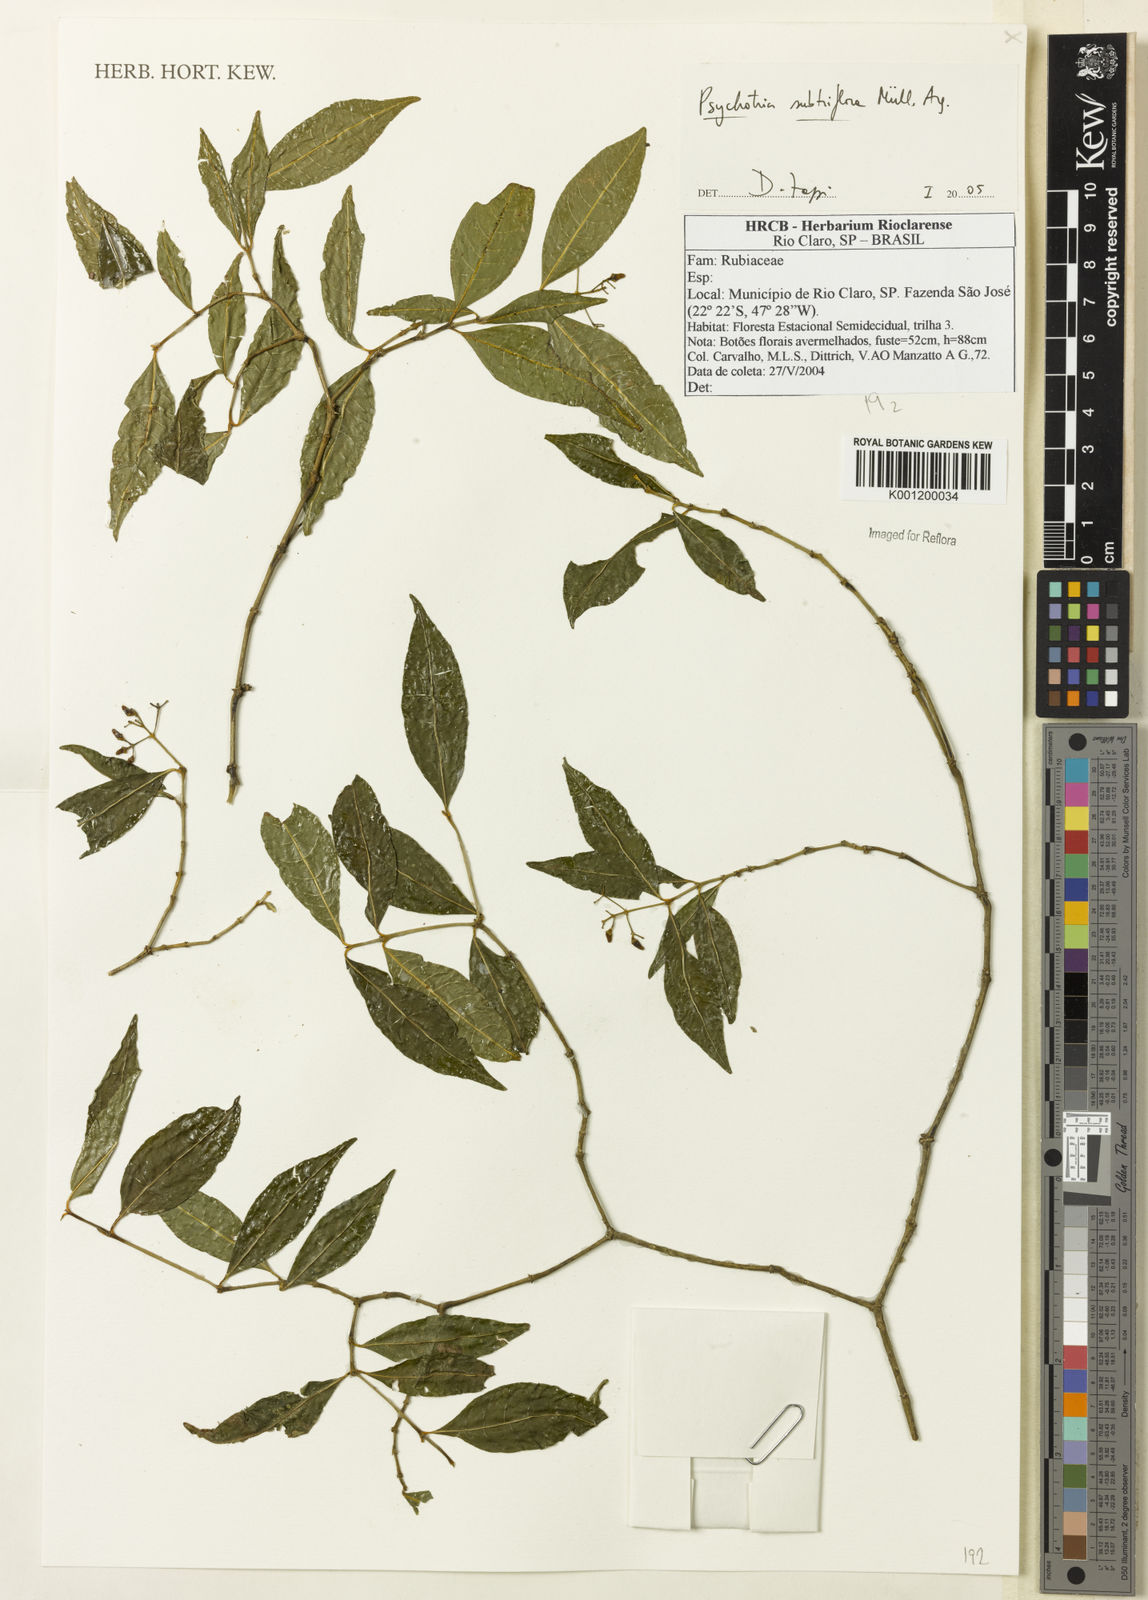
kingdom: Plantae
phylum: Tracheophyta
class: Magnoliopsida
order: Gentianales
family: Rubiaceae
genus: Psychotria
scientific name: Psychotria
